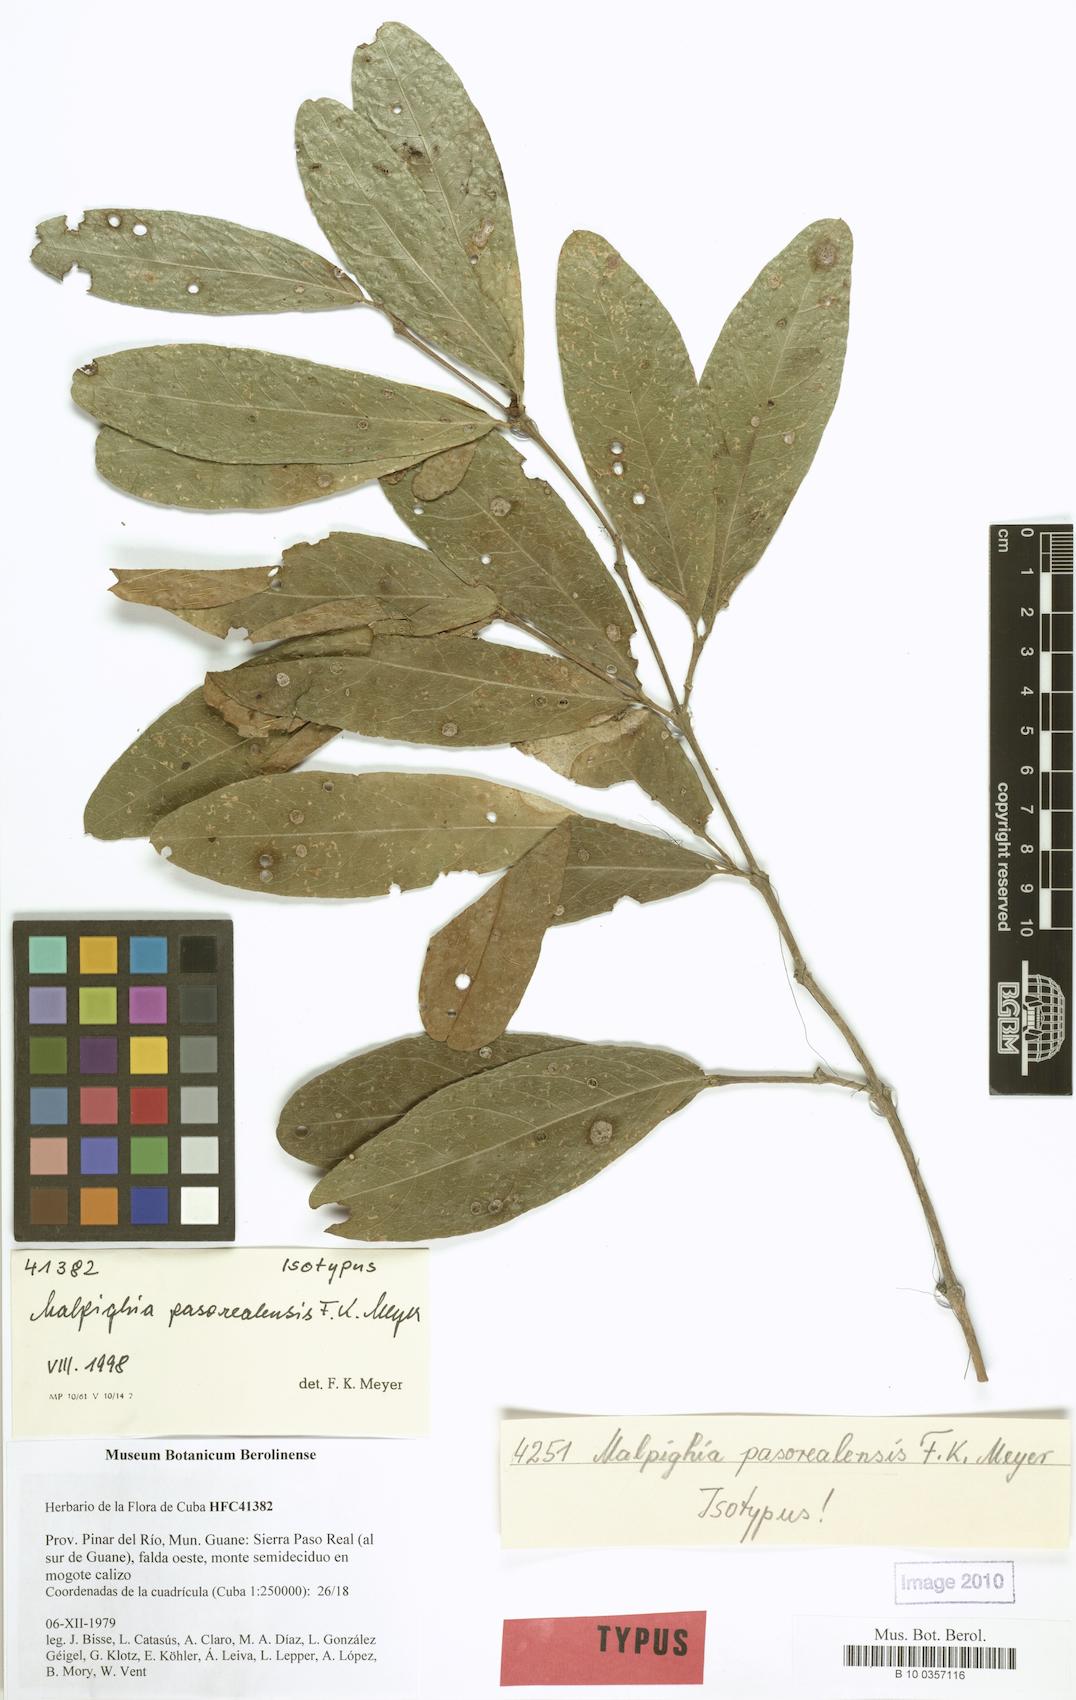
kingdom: Plantae
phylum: Tracheophyta
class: Magnoliopsida
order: Malpighiales
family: Malpighiaceae
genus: Malpighia
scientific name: Malpighia pasorealensis
